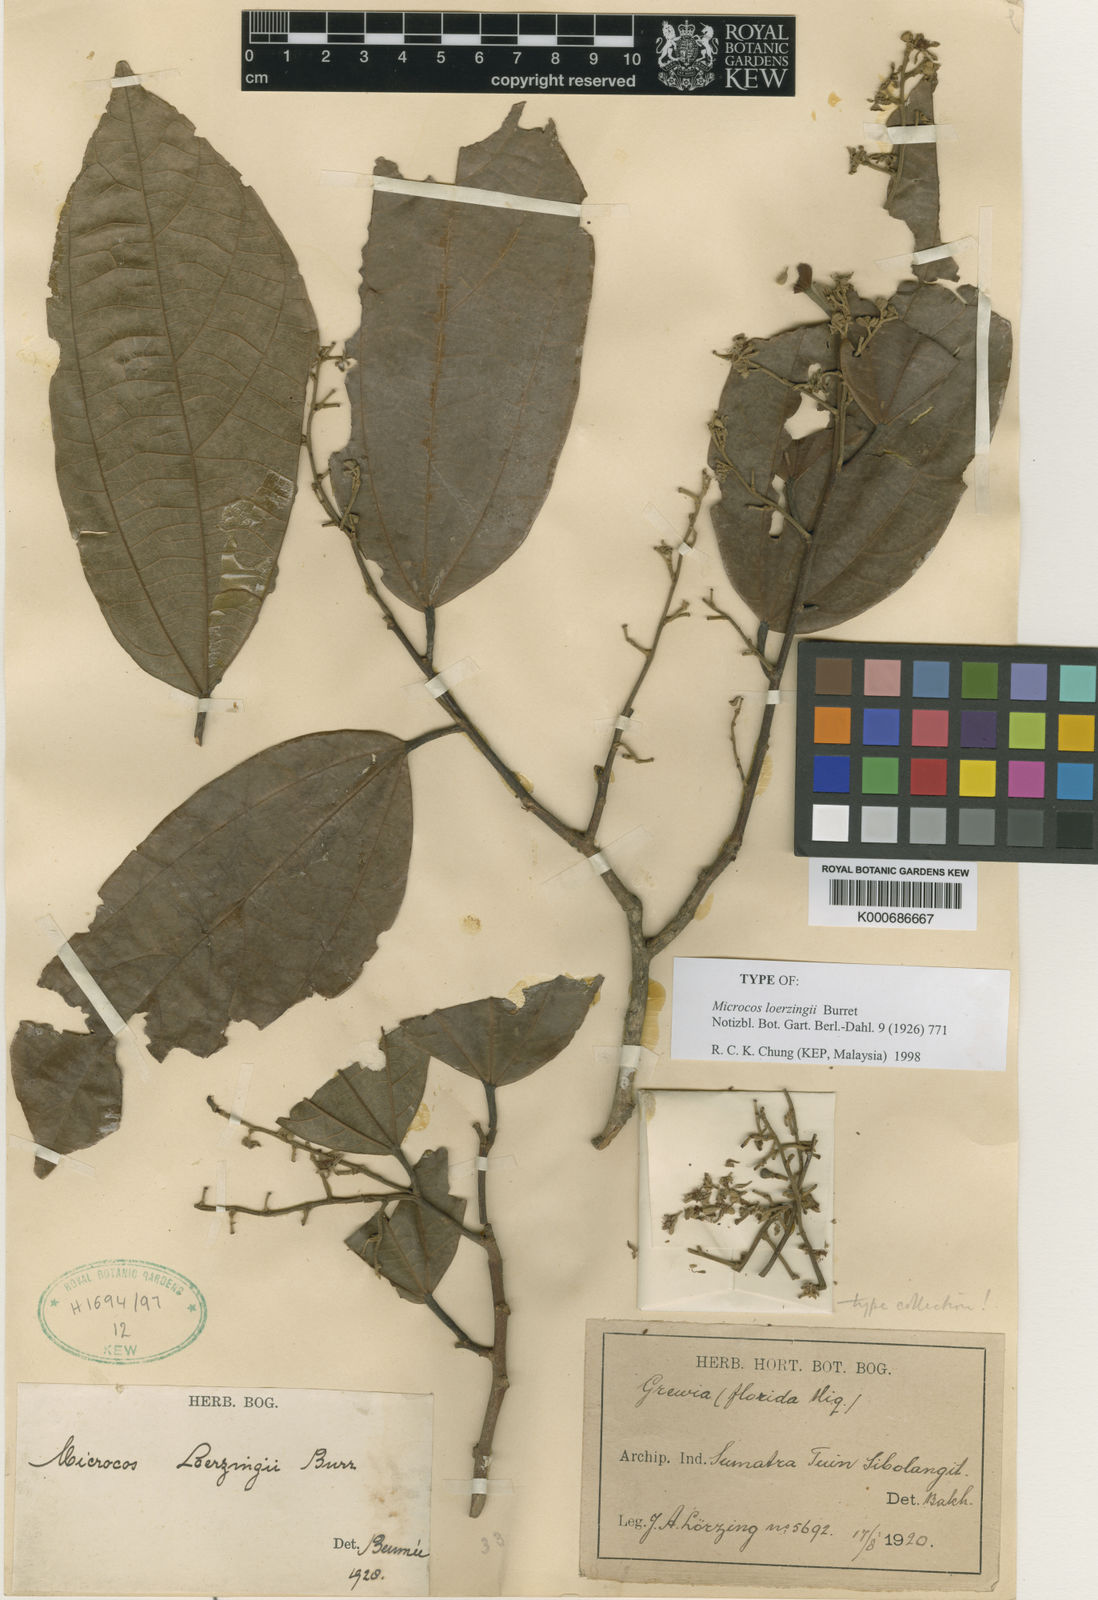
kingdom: Plantae
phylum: Tracheophyta
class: Magnoliopsida
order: Malvales
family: Malvaceae
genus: Microcos
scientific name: Microcos loerzingii
